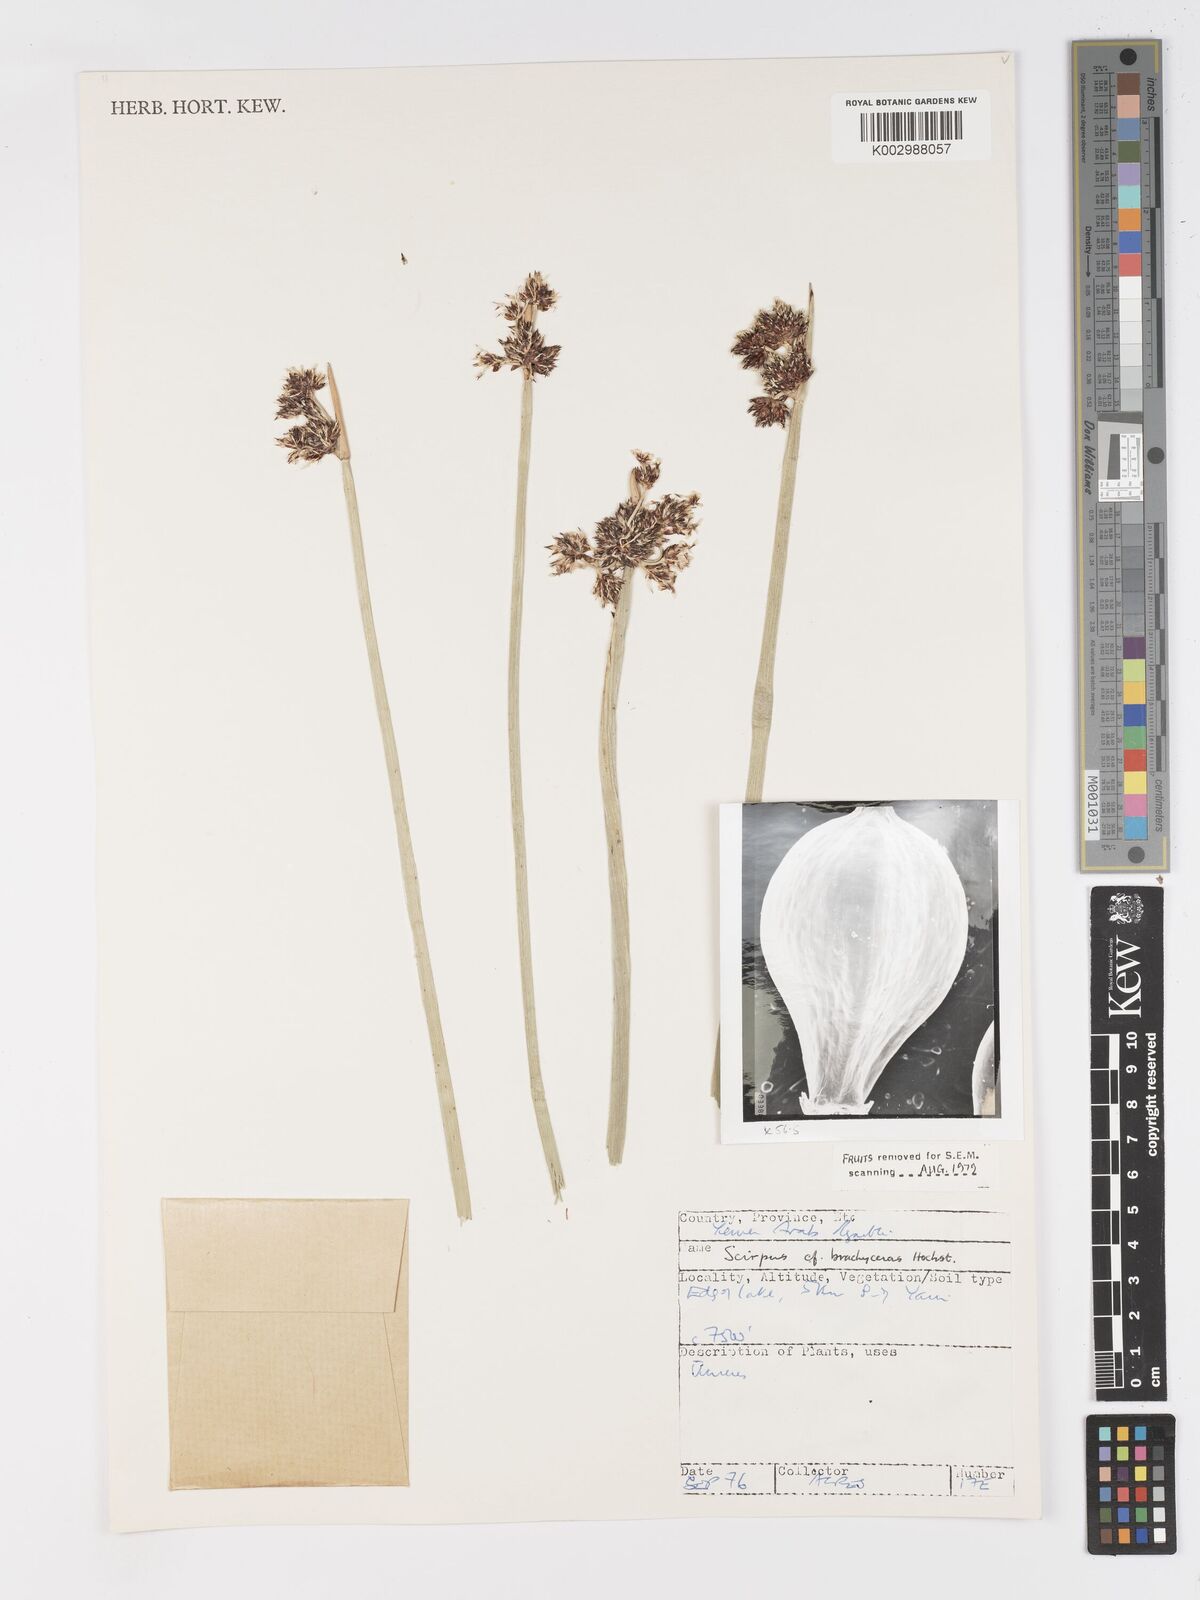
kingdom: Plantae
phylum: Tracheophyta
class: Liliopsida
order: Poales
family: Cyperaceae
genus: Schoenoplectiella
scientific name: Schoenoplectiella brachyceras
